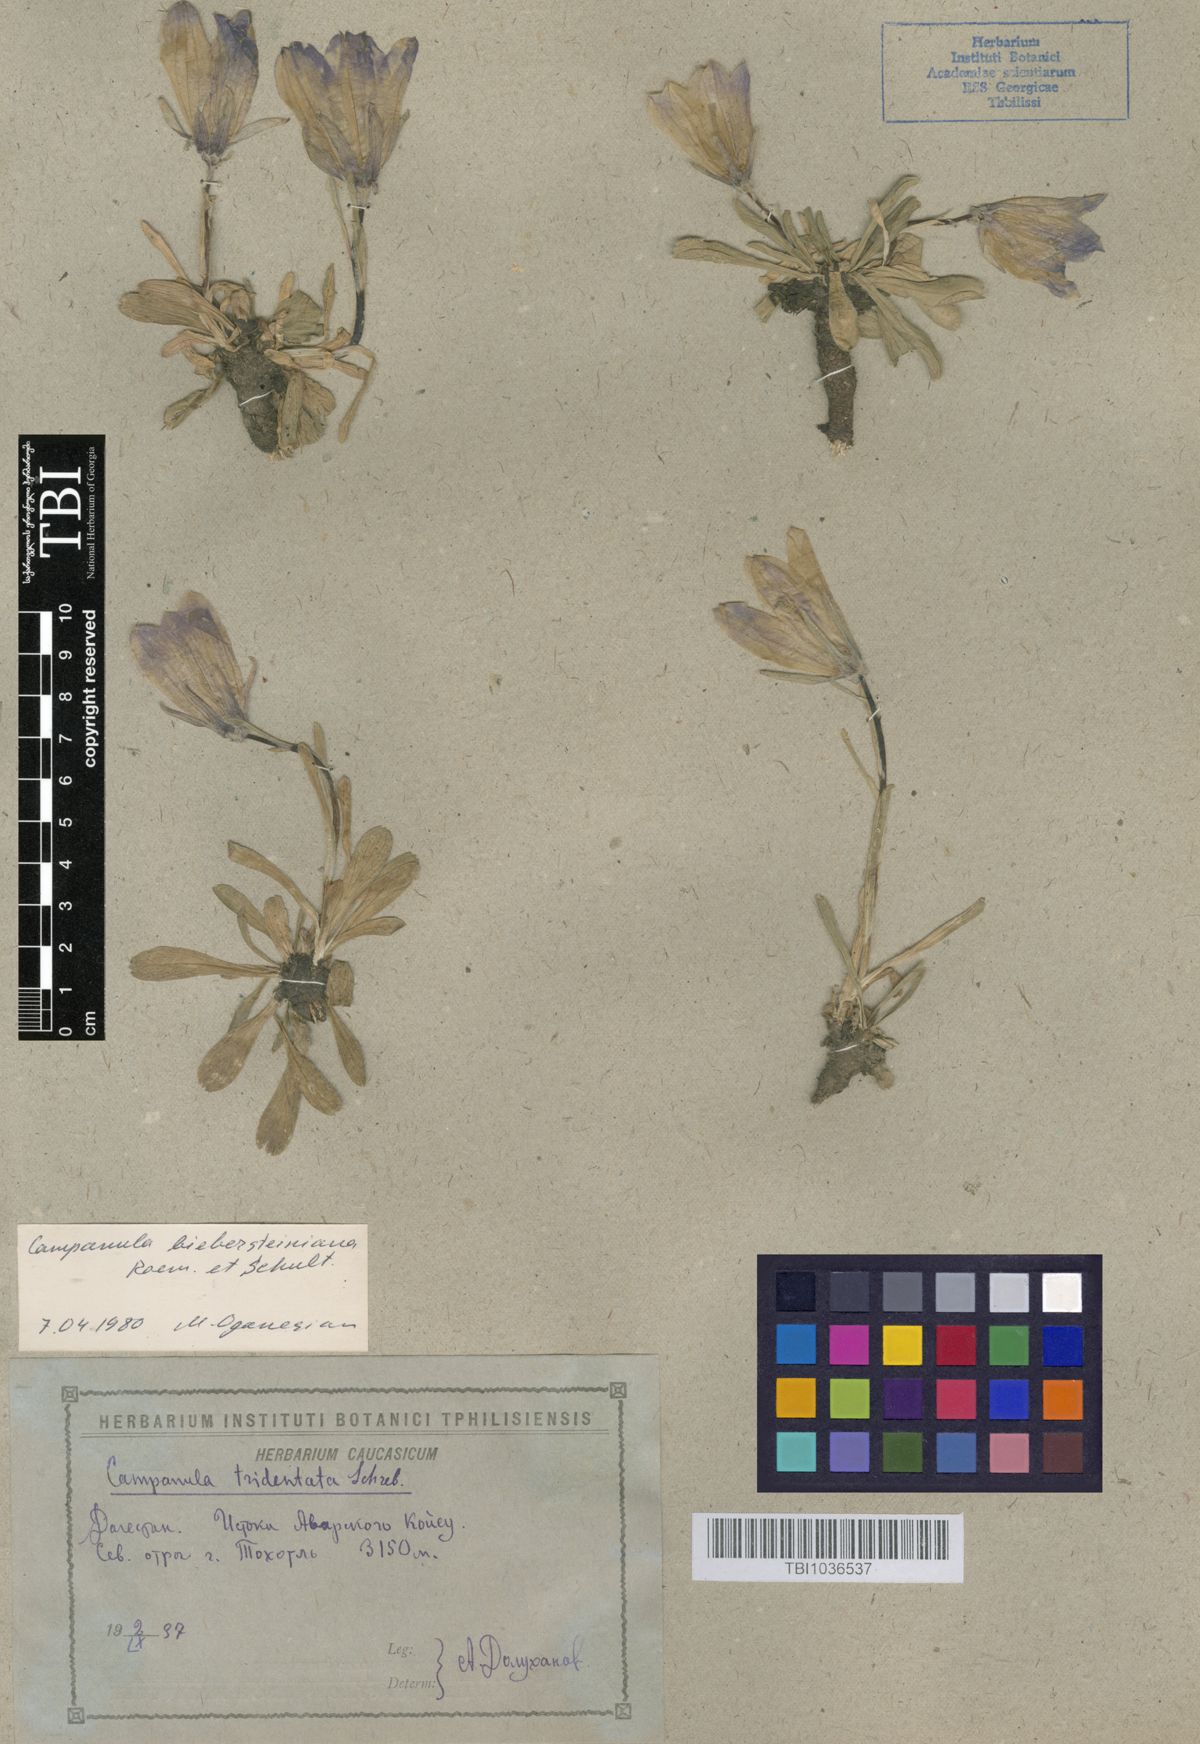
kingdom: Plantae
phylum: Tracheophyta
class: Magnoliopsida
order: Asterales
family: Campanulaceae
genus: Campanula
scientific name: Campanula tridentata
